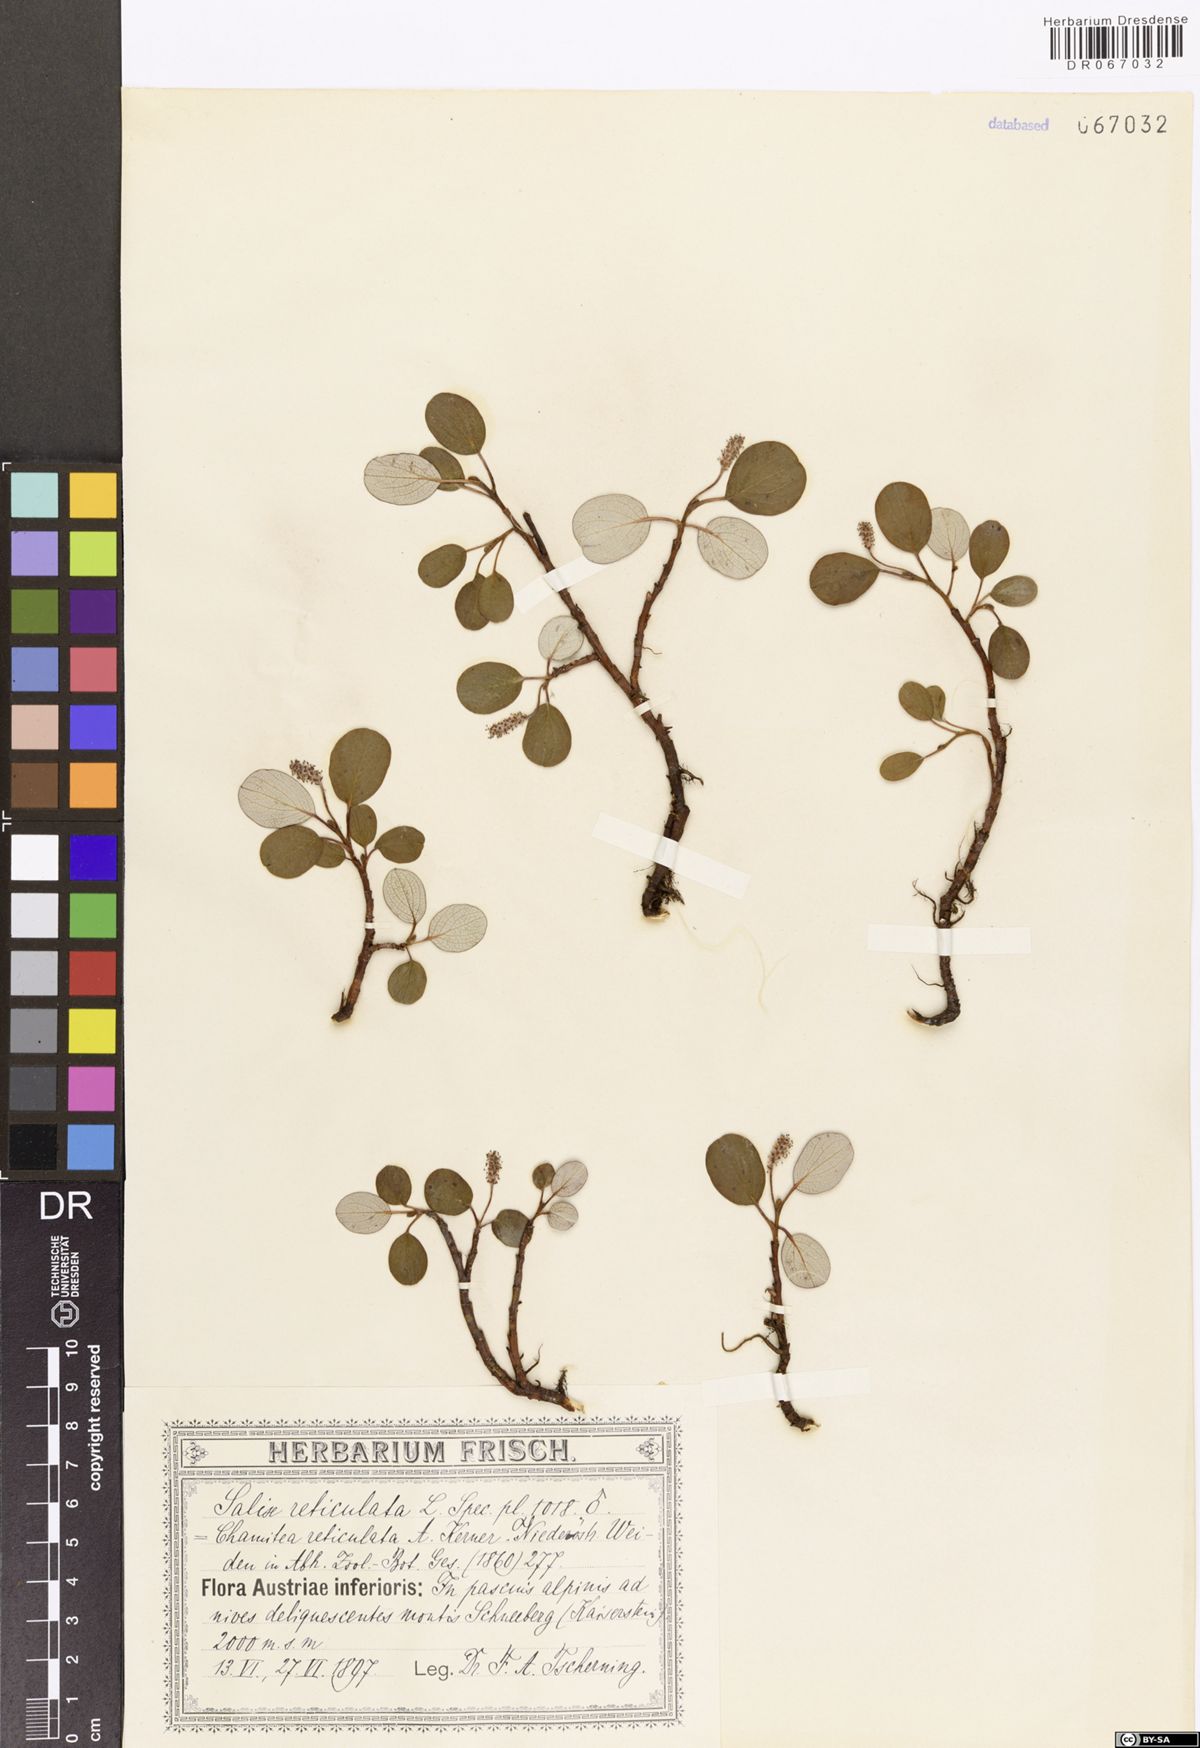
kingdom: Plantae
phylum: Tracheophyta
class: Magnoliopsida
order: Malpighiales
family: Salicaceae
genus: Salix
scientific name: Salix reticulata
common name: Net-leaved willow
